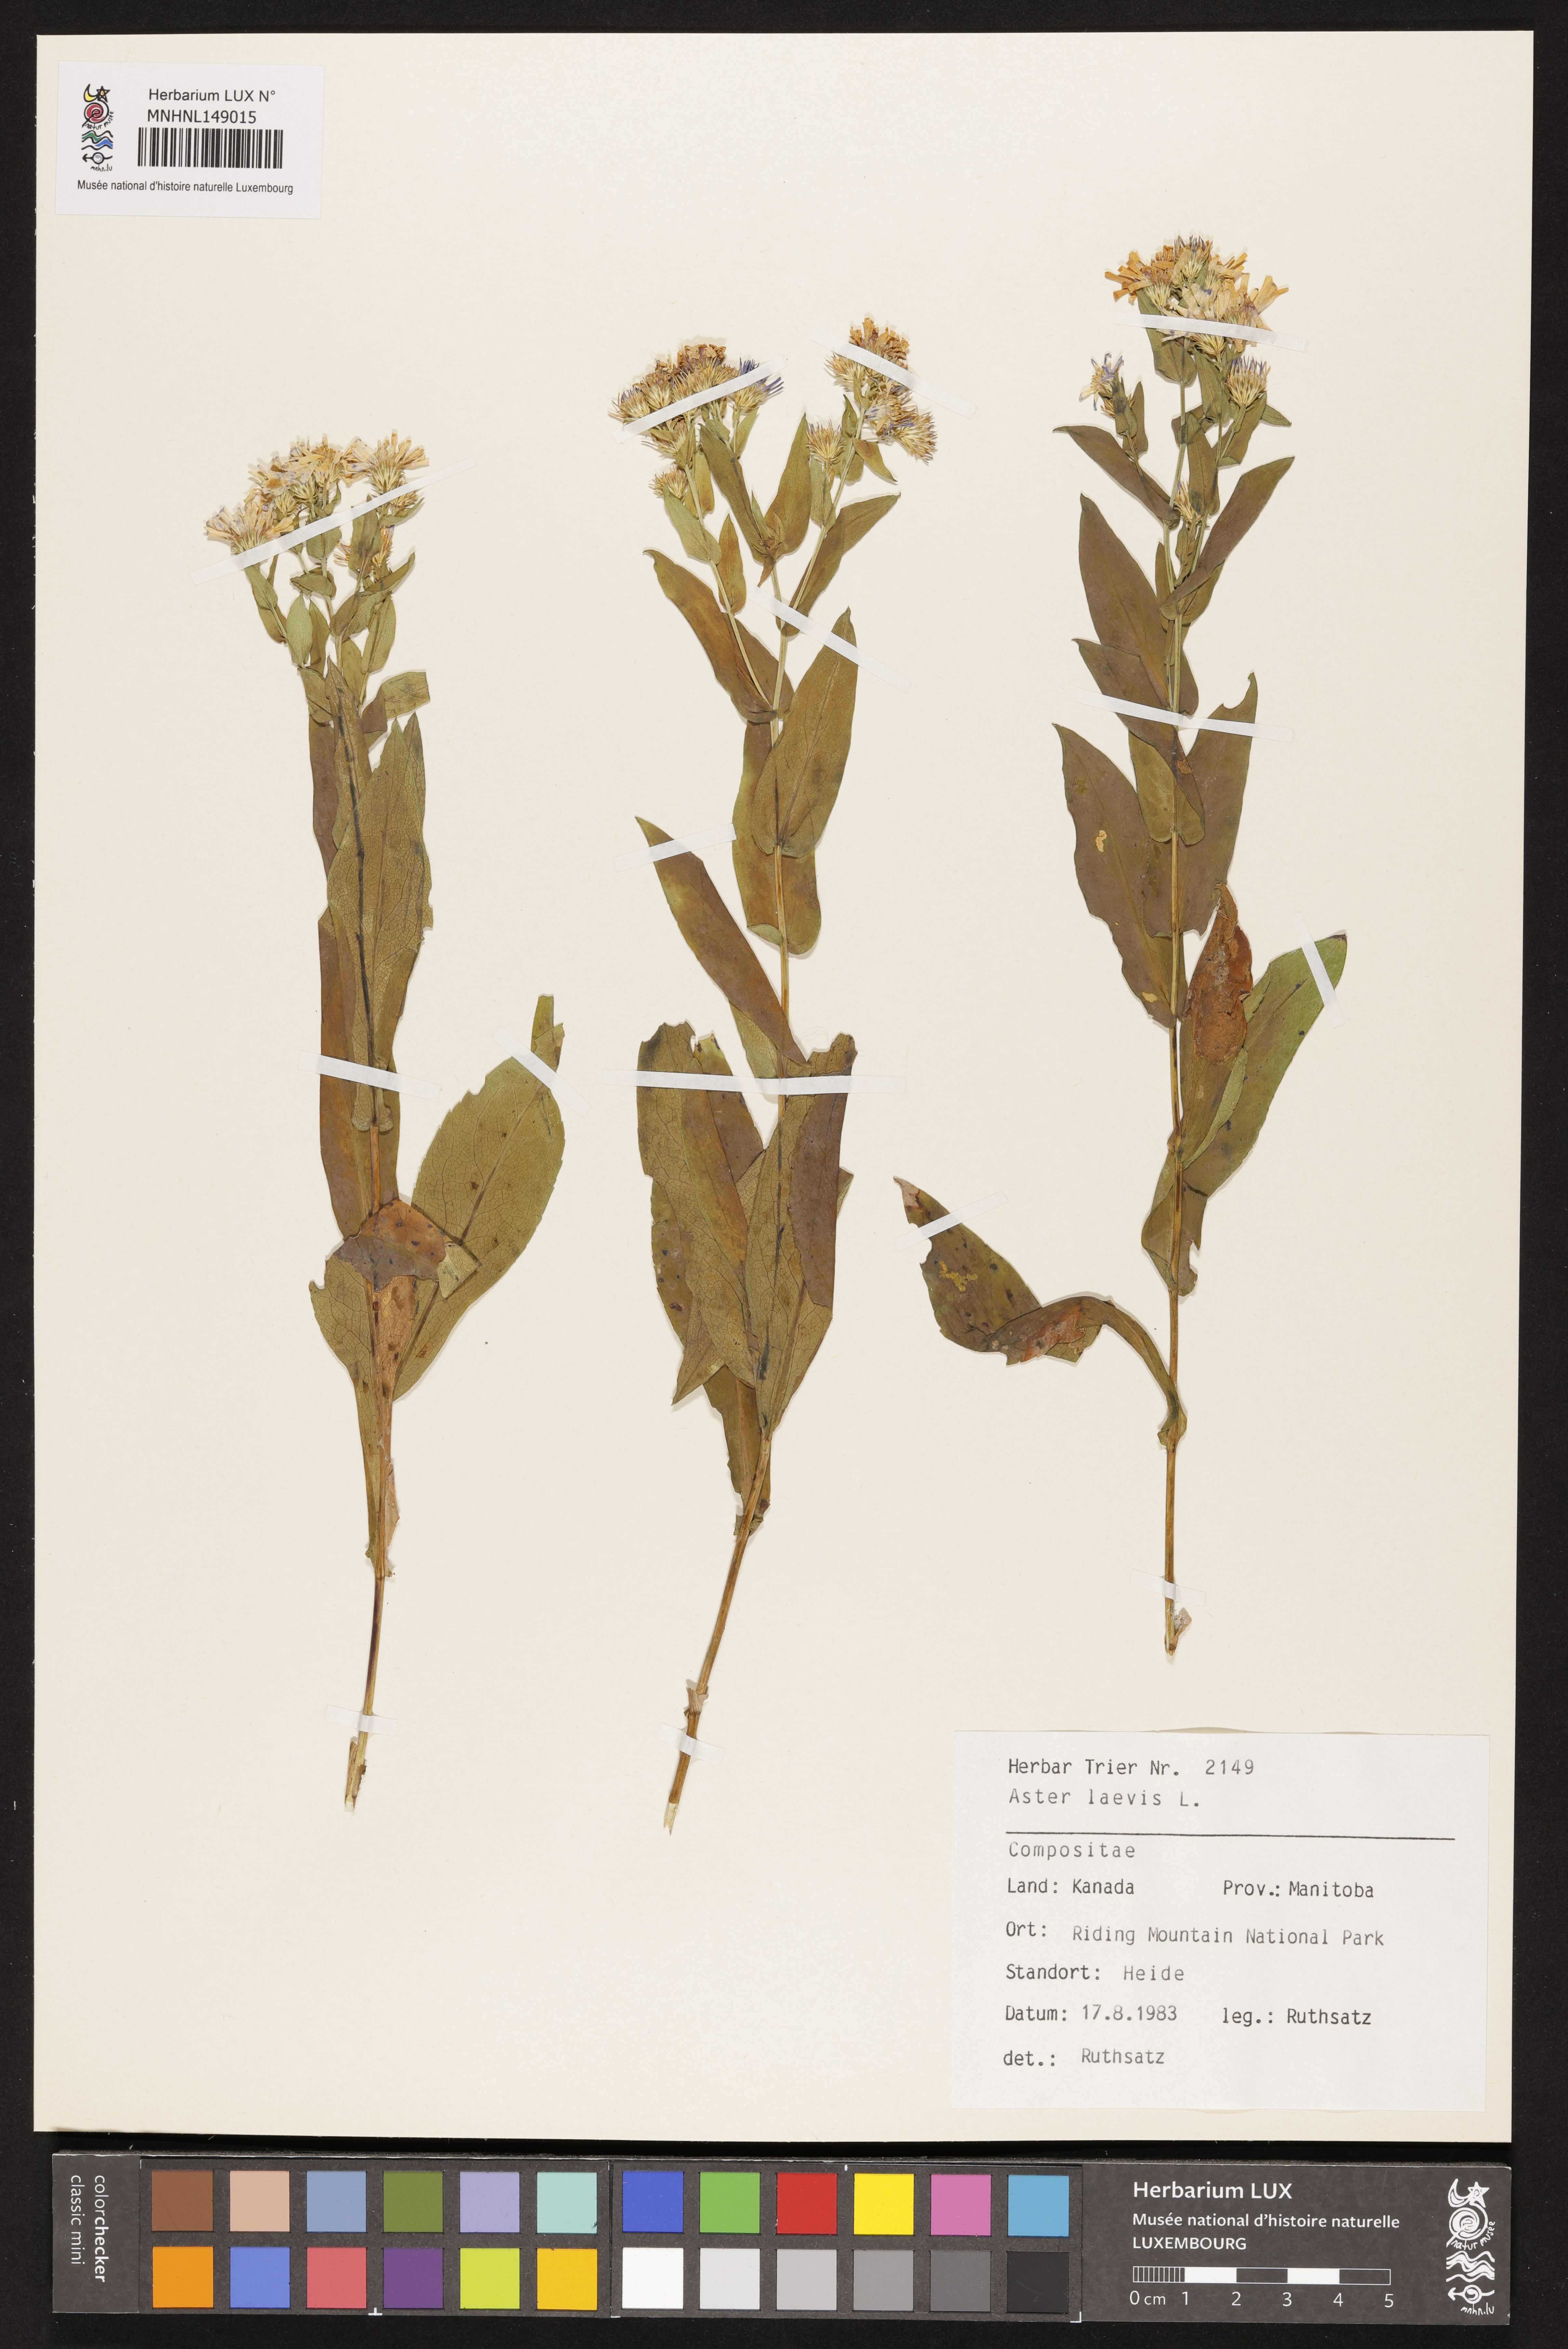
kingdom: Plantae
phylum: Tracheophyta
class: Magnoliopsida
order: Asterales
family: Asteraceae
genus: Symphyotrichum
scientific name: Symphyotrichum laeve
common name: Glaucous aster
